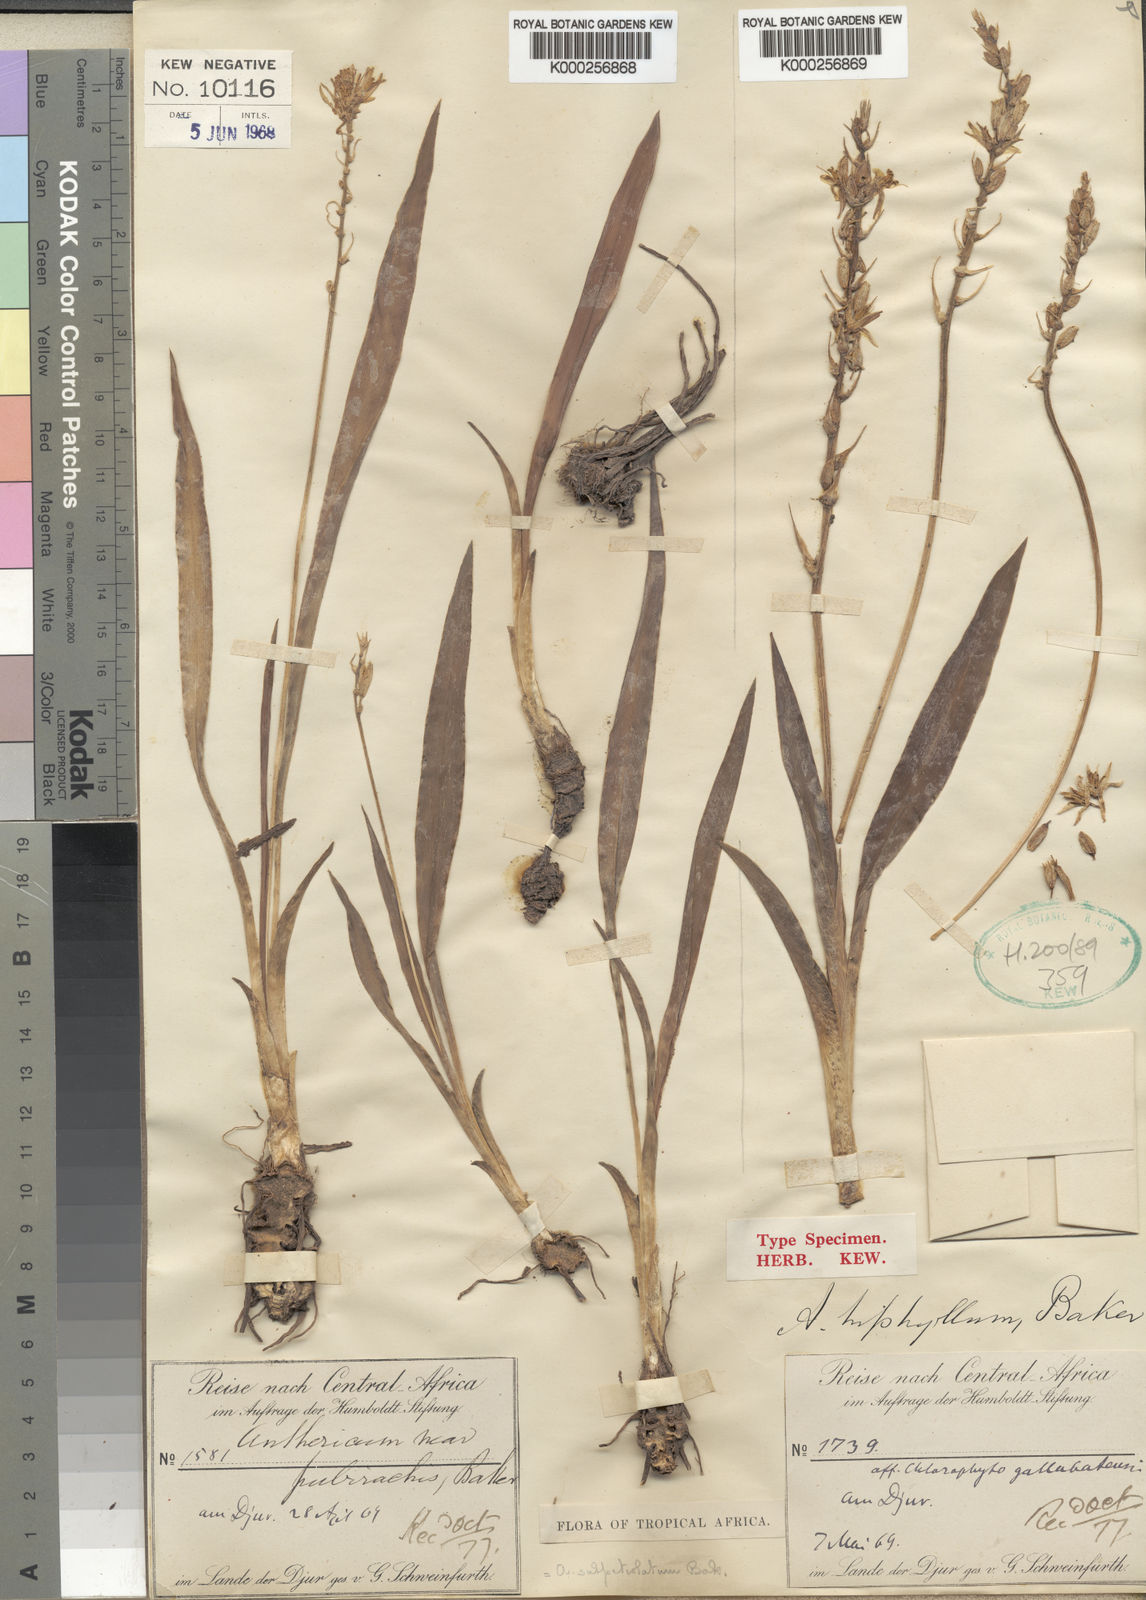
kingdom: Plantae
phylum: Tracheophyta
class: Liliopsida
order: Asparagales
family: Asparagaceae
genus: Chlorophytum
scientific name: Chlorophytum subpetiolatum
